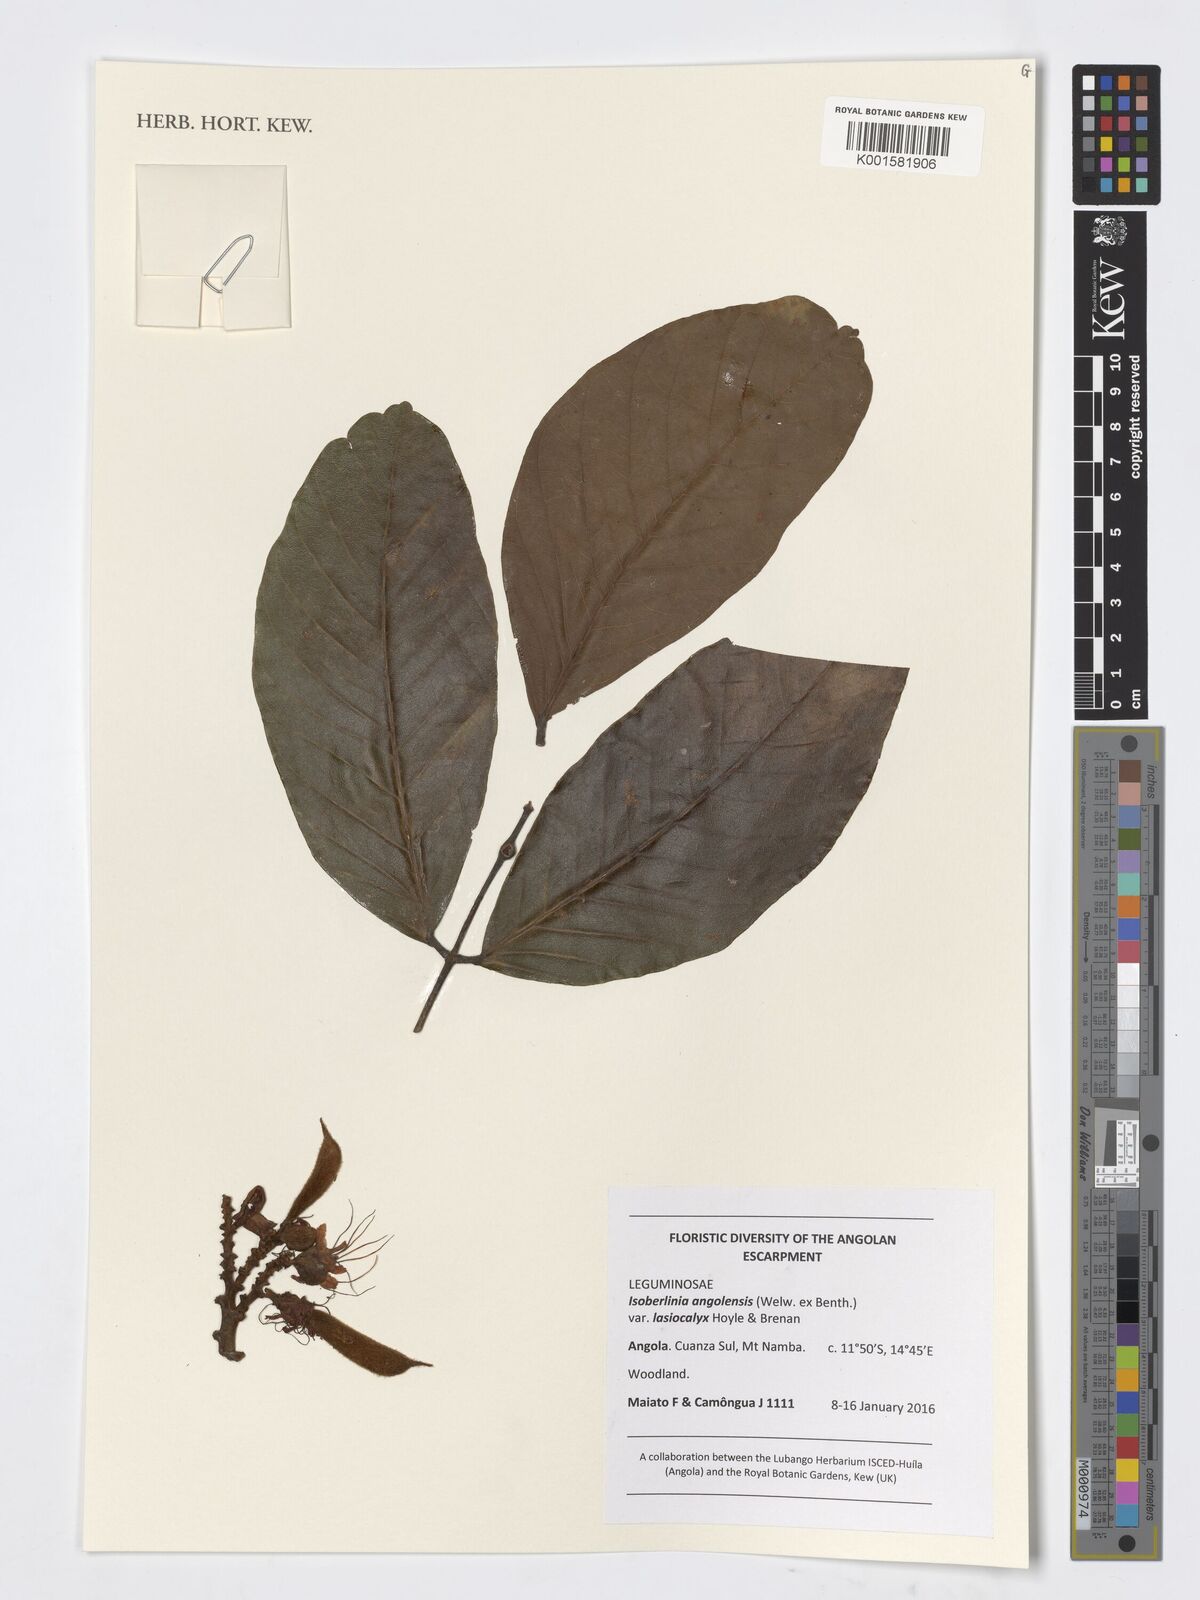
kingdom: Plantae
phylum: Tracheophyta
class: Magnoliopsida
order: Fabales
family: Fabaceae
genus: Isoberlinia
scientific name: Isoberlinia angolensis
